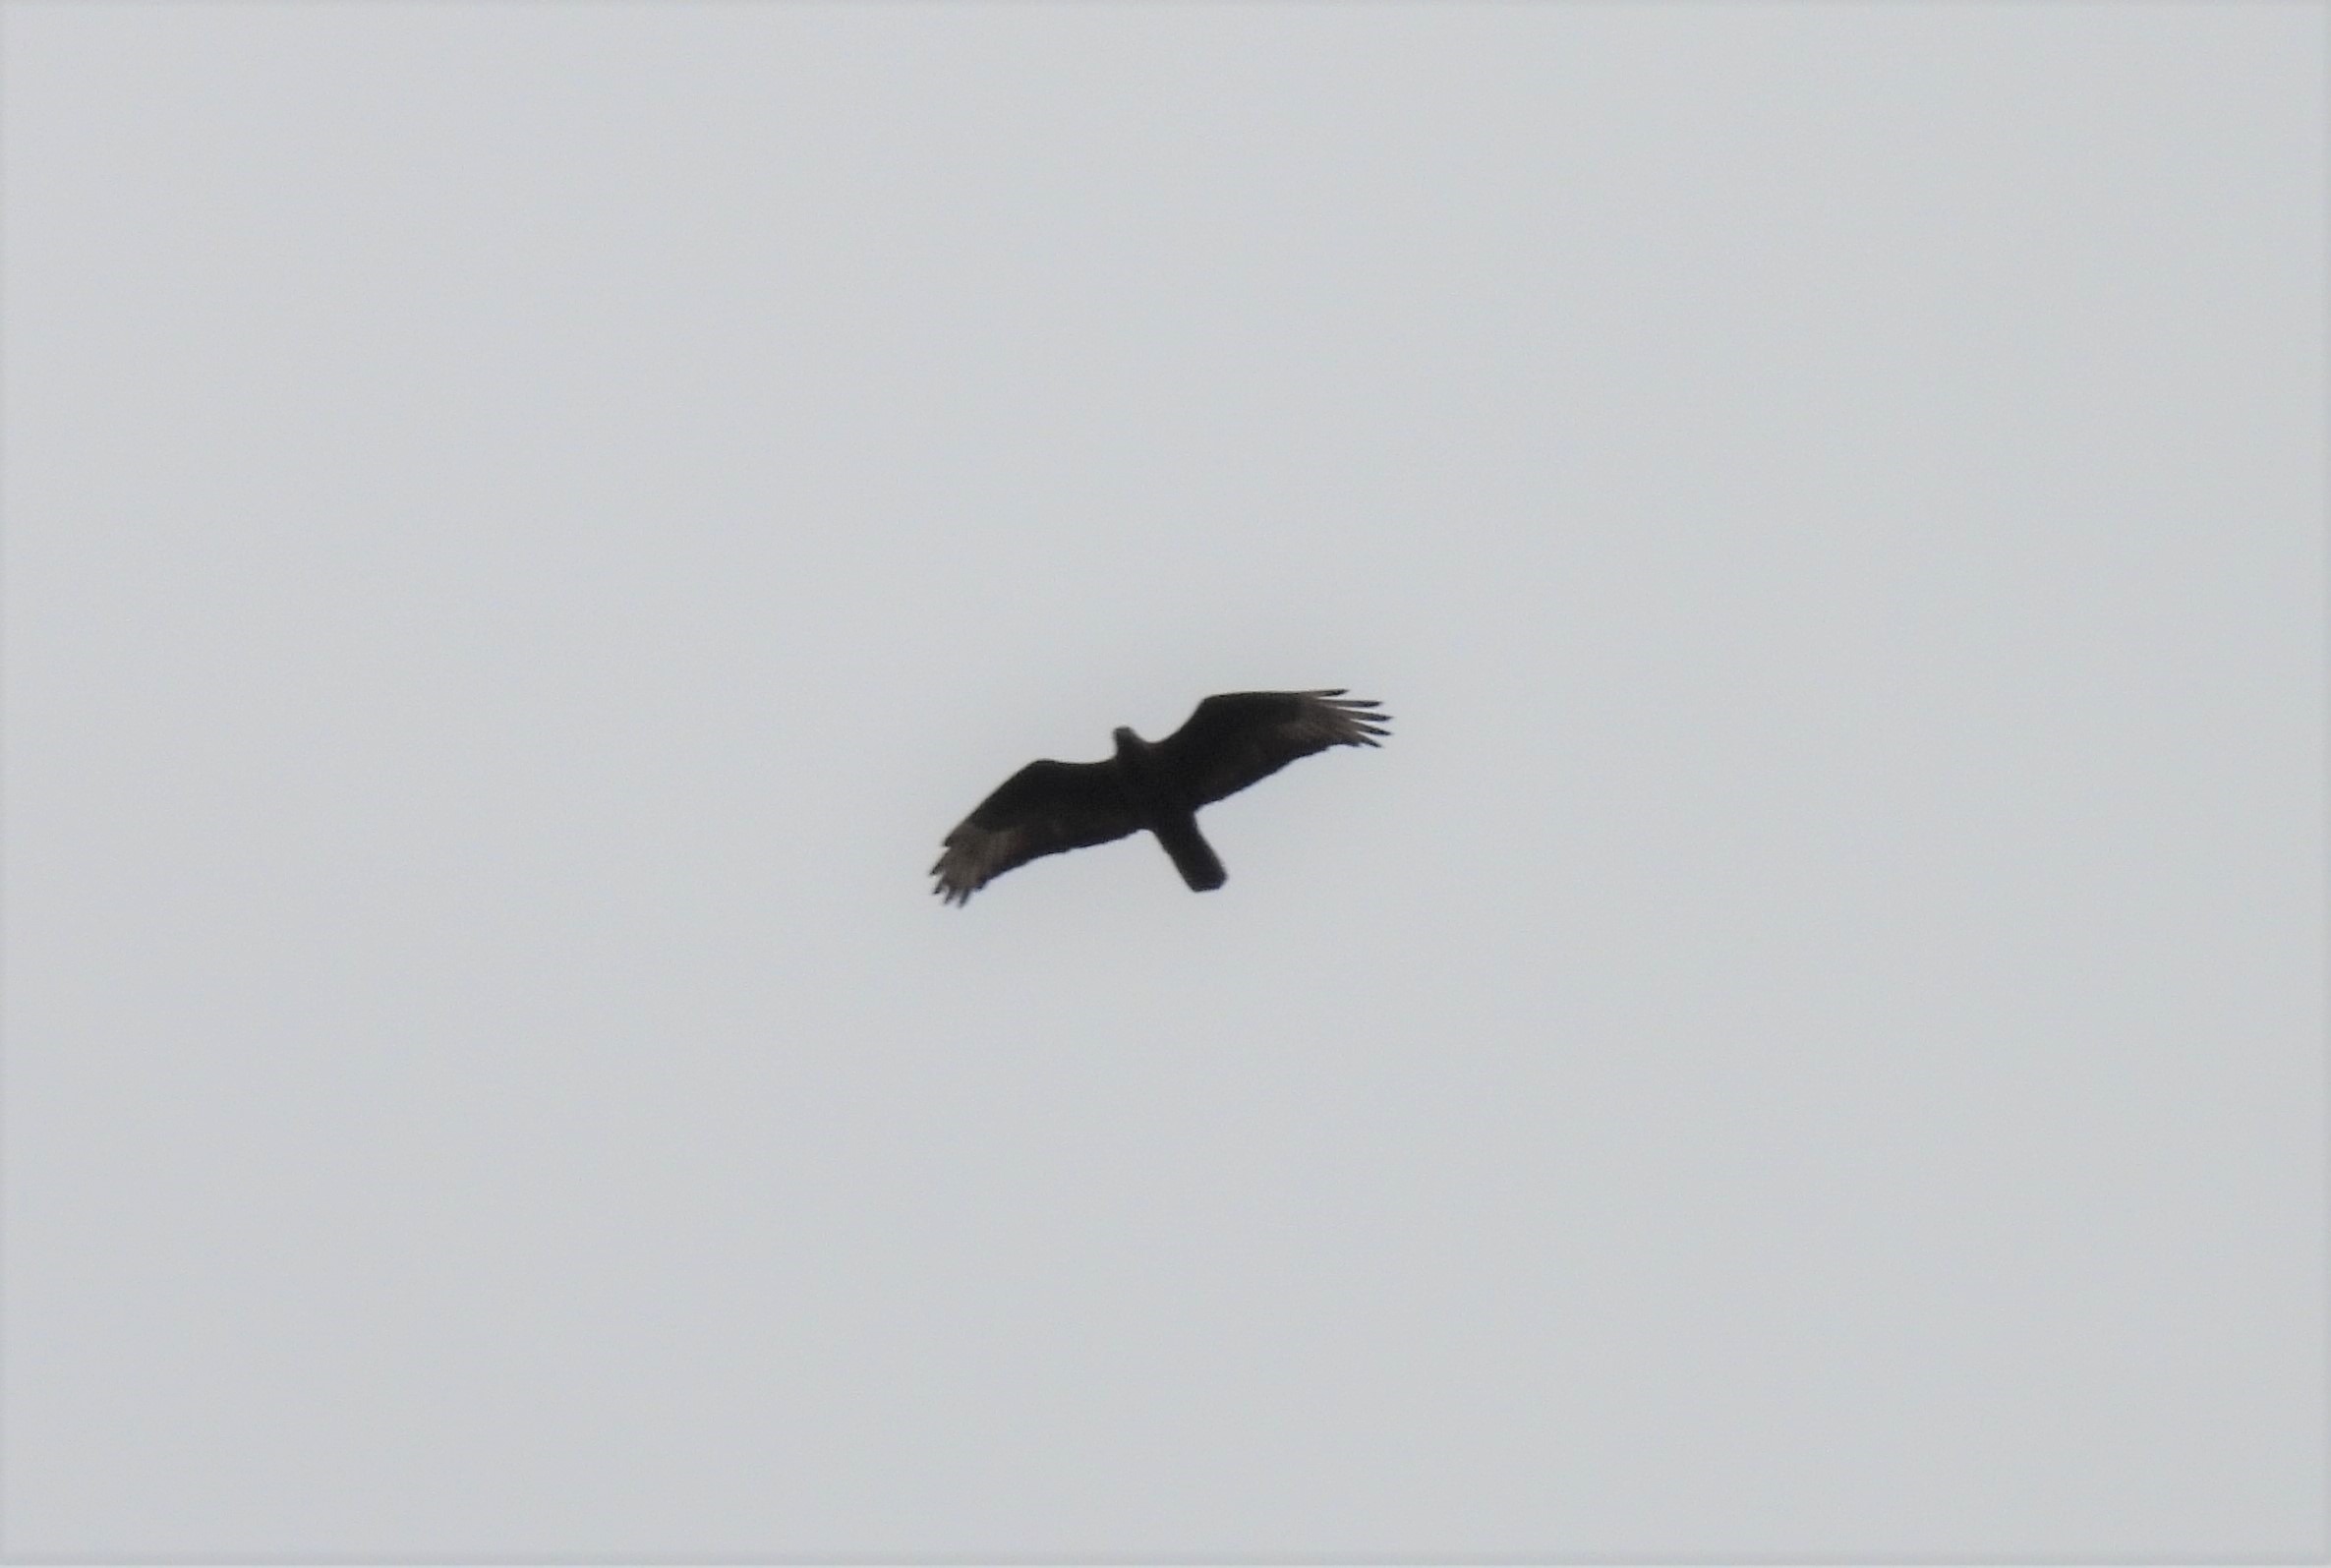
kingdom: Animalia
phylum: Chordata
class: Aves
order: Accipitriformes
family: Accipitridae
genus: Pernis
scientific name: Pernis apivorus
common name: Hvepsevåge
